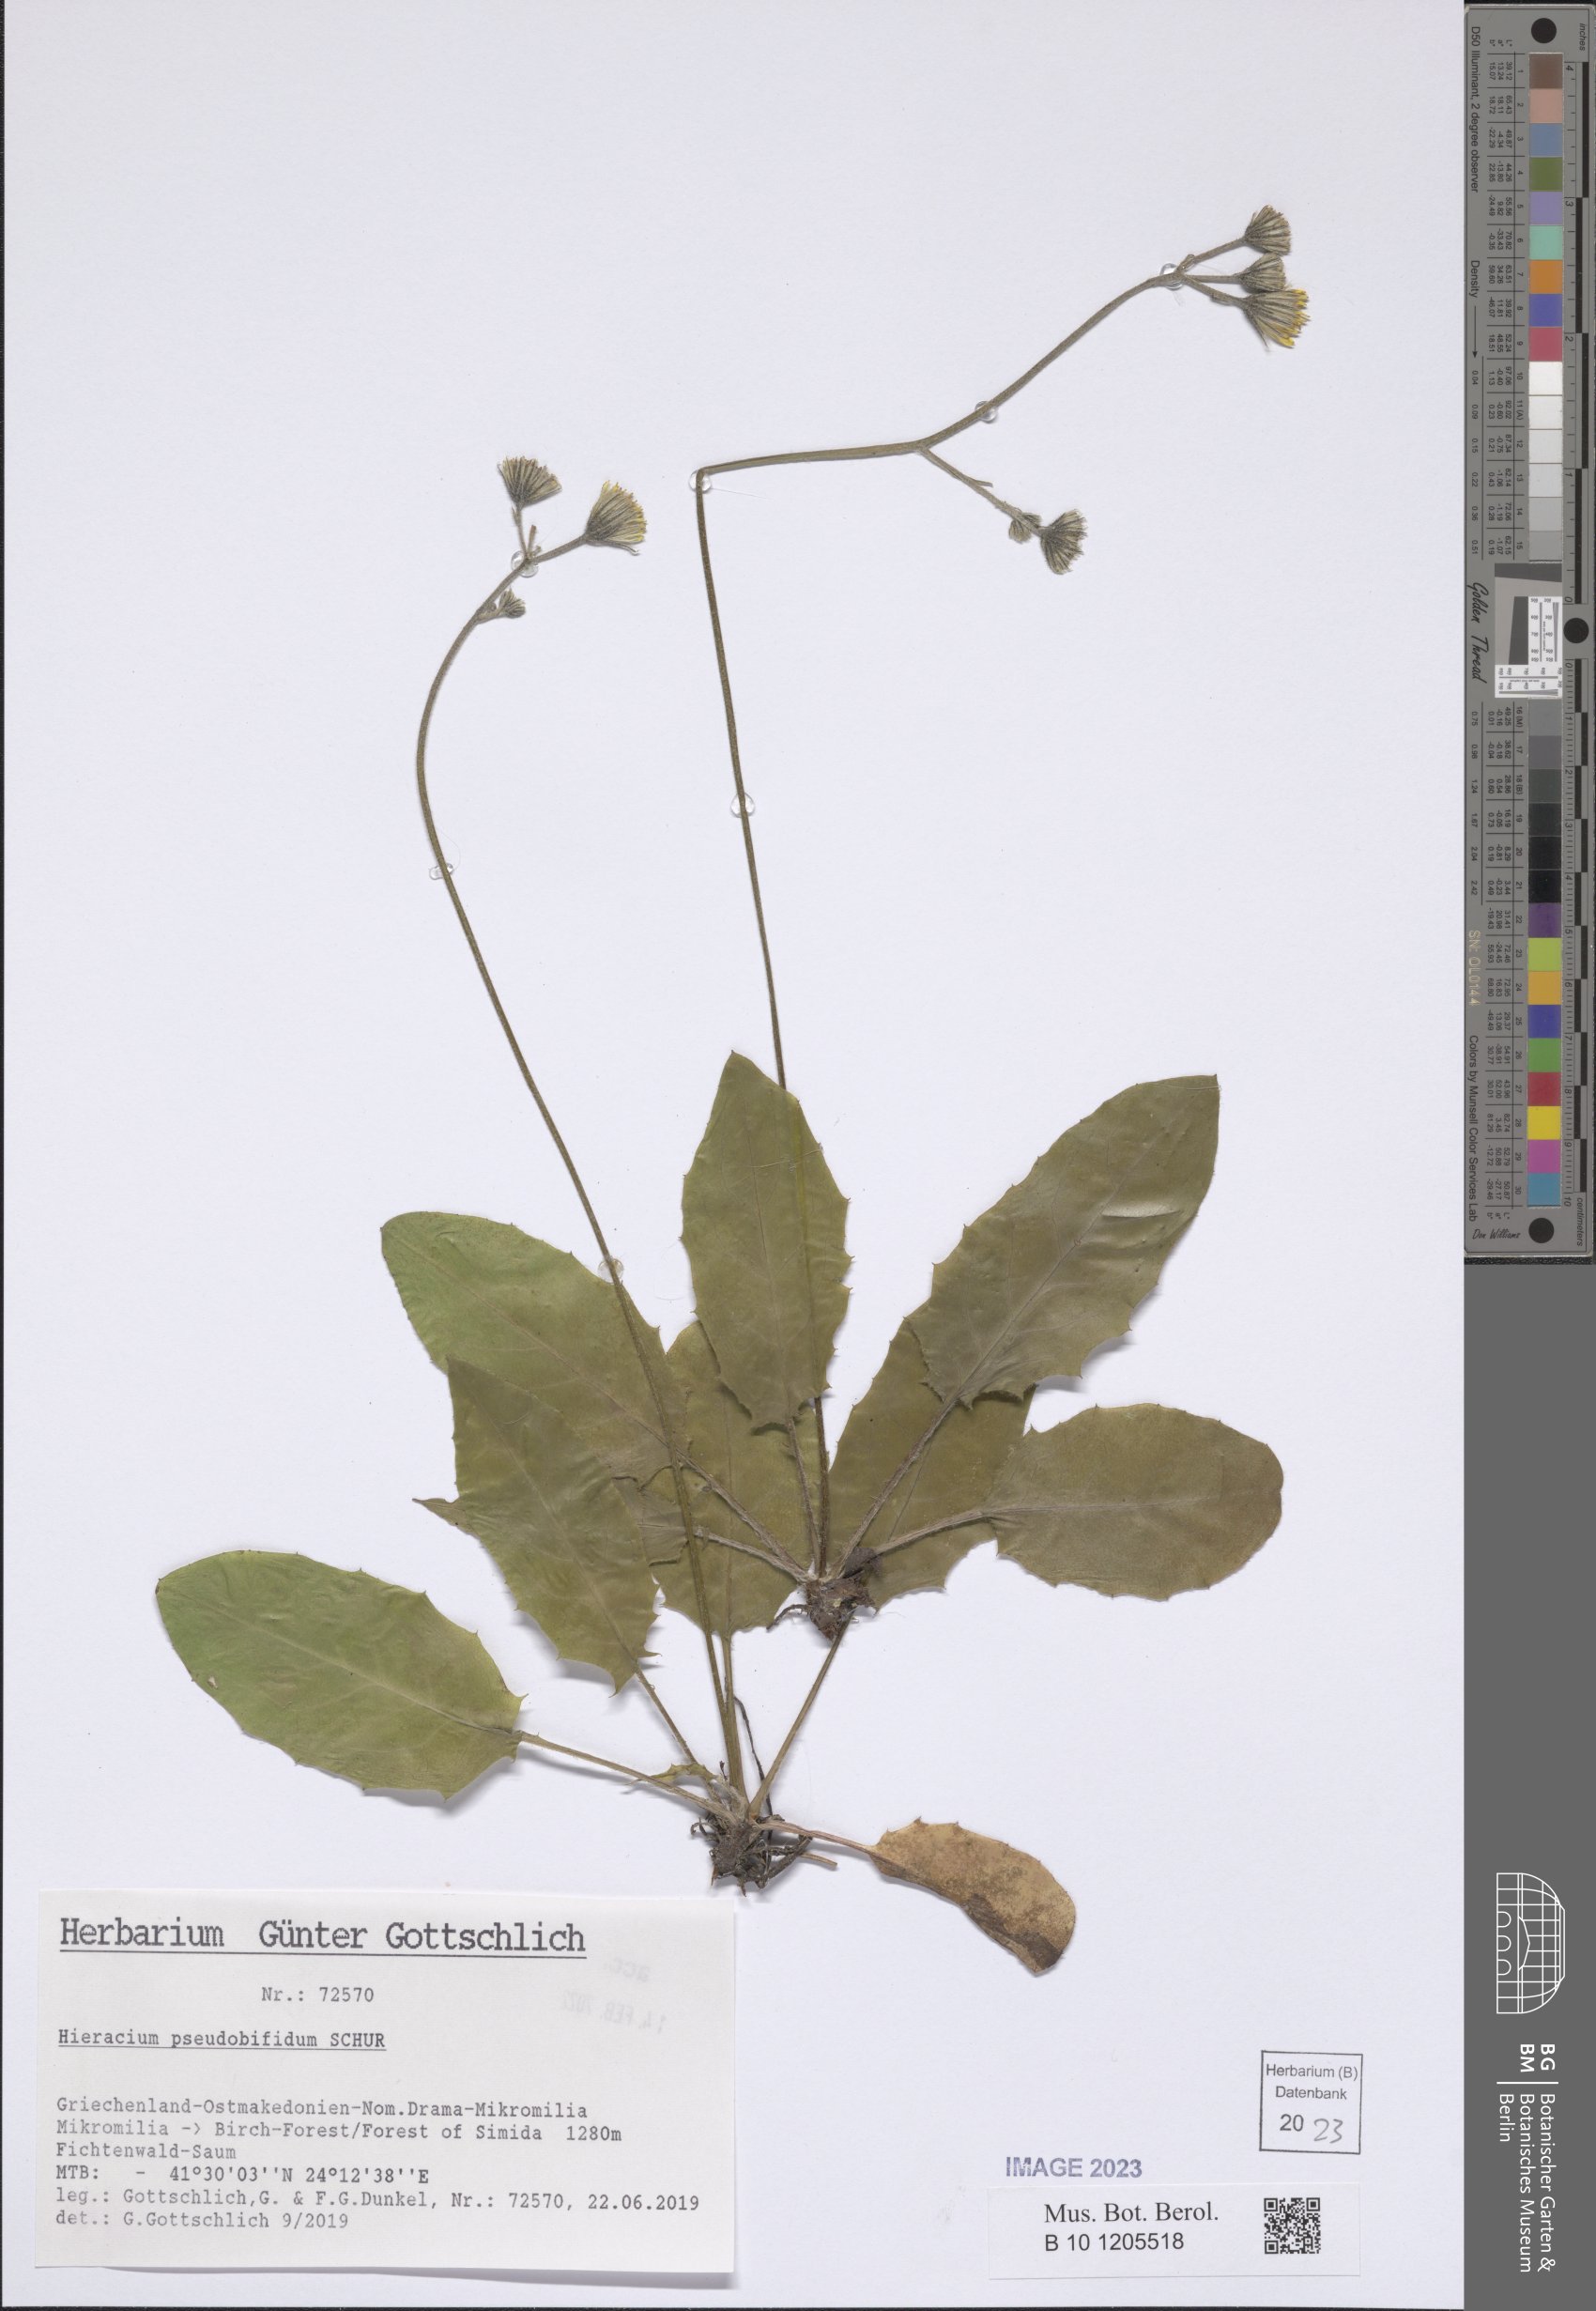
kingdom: Plantae
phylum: Tracheophyta
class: Magnoliopsida
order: Asterales
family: Asteraceae
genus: Hieracium
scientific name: Hieracium pseudobifidum
